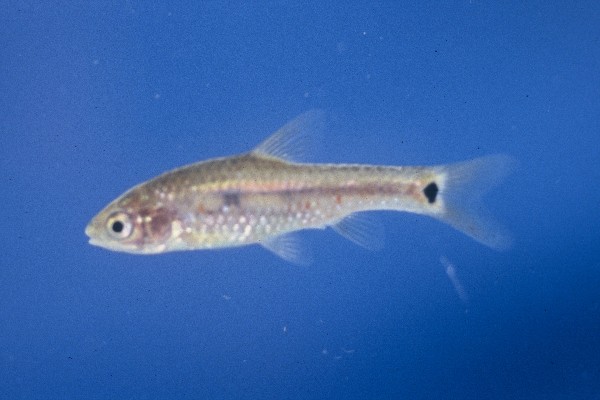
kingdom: Animalia
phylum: Chordata
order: Cypriniformes
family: Cyprinidae
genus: Enteromius
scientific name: Enteromius brevidorsalis
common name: Dwarf barb
